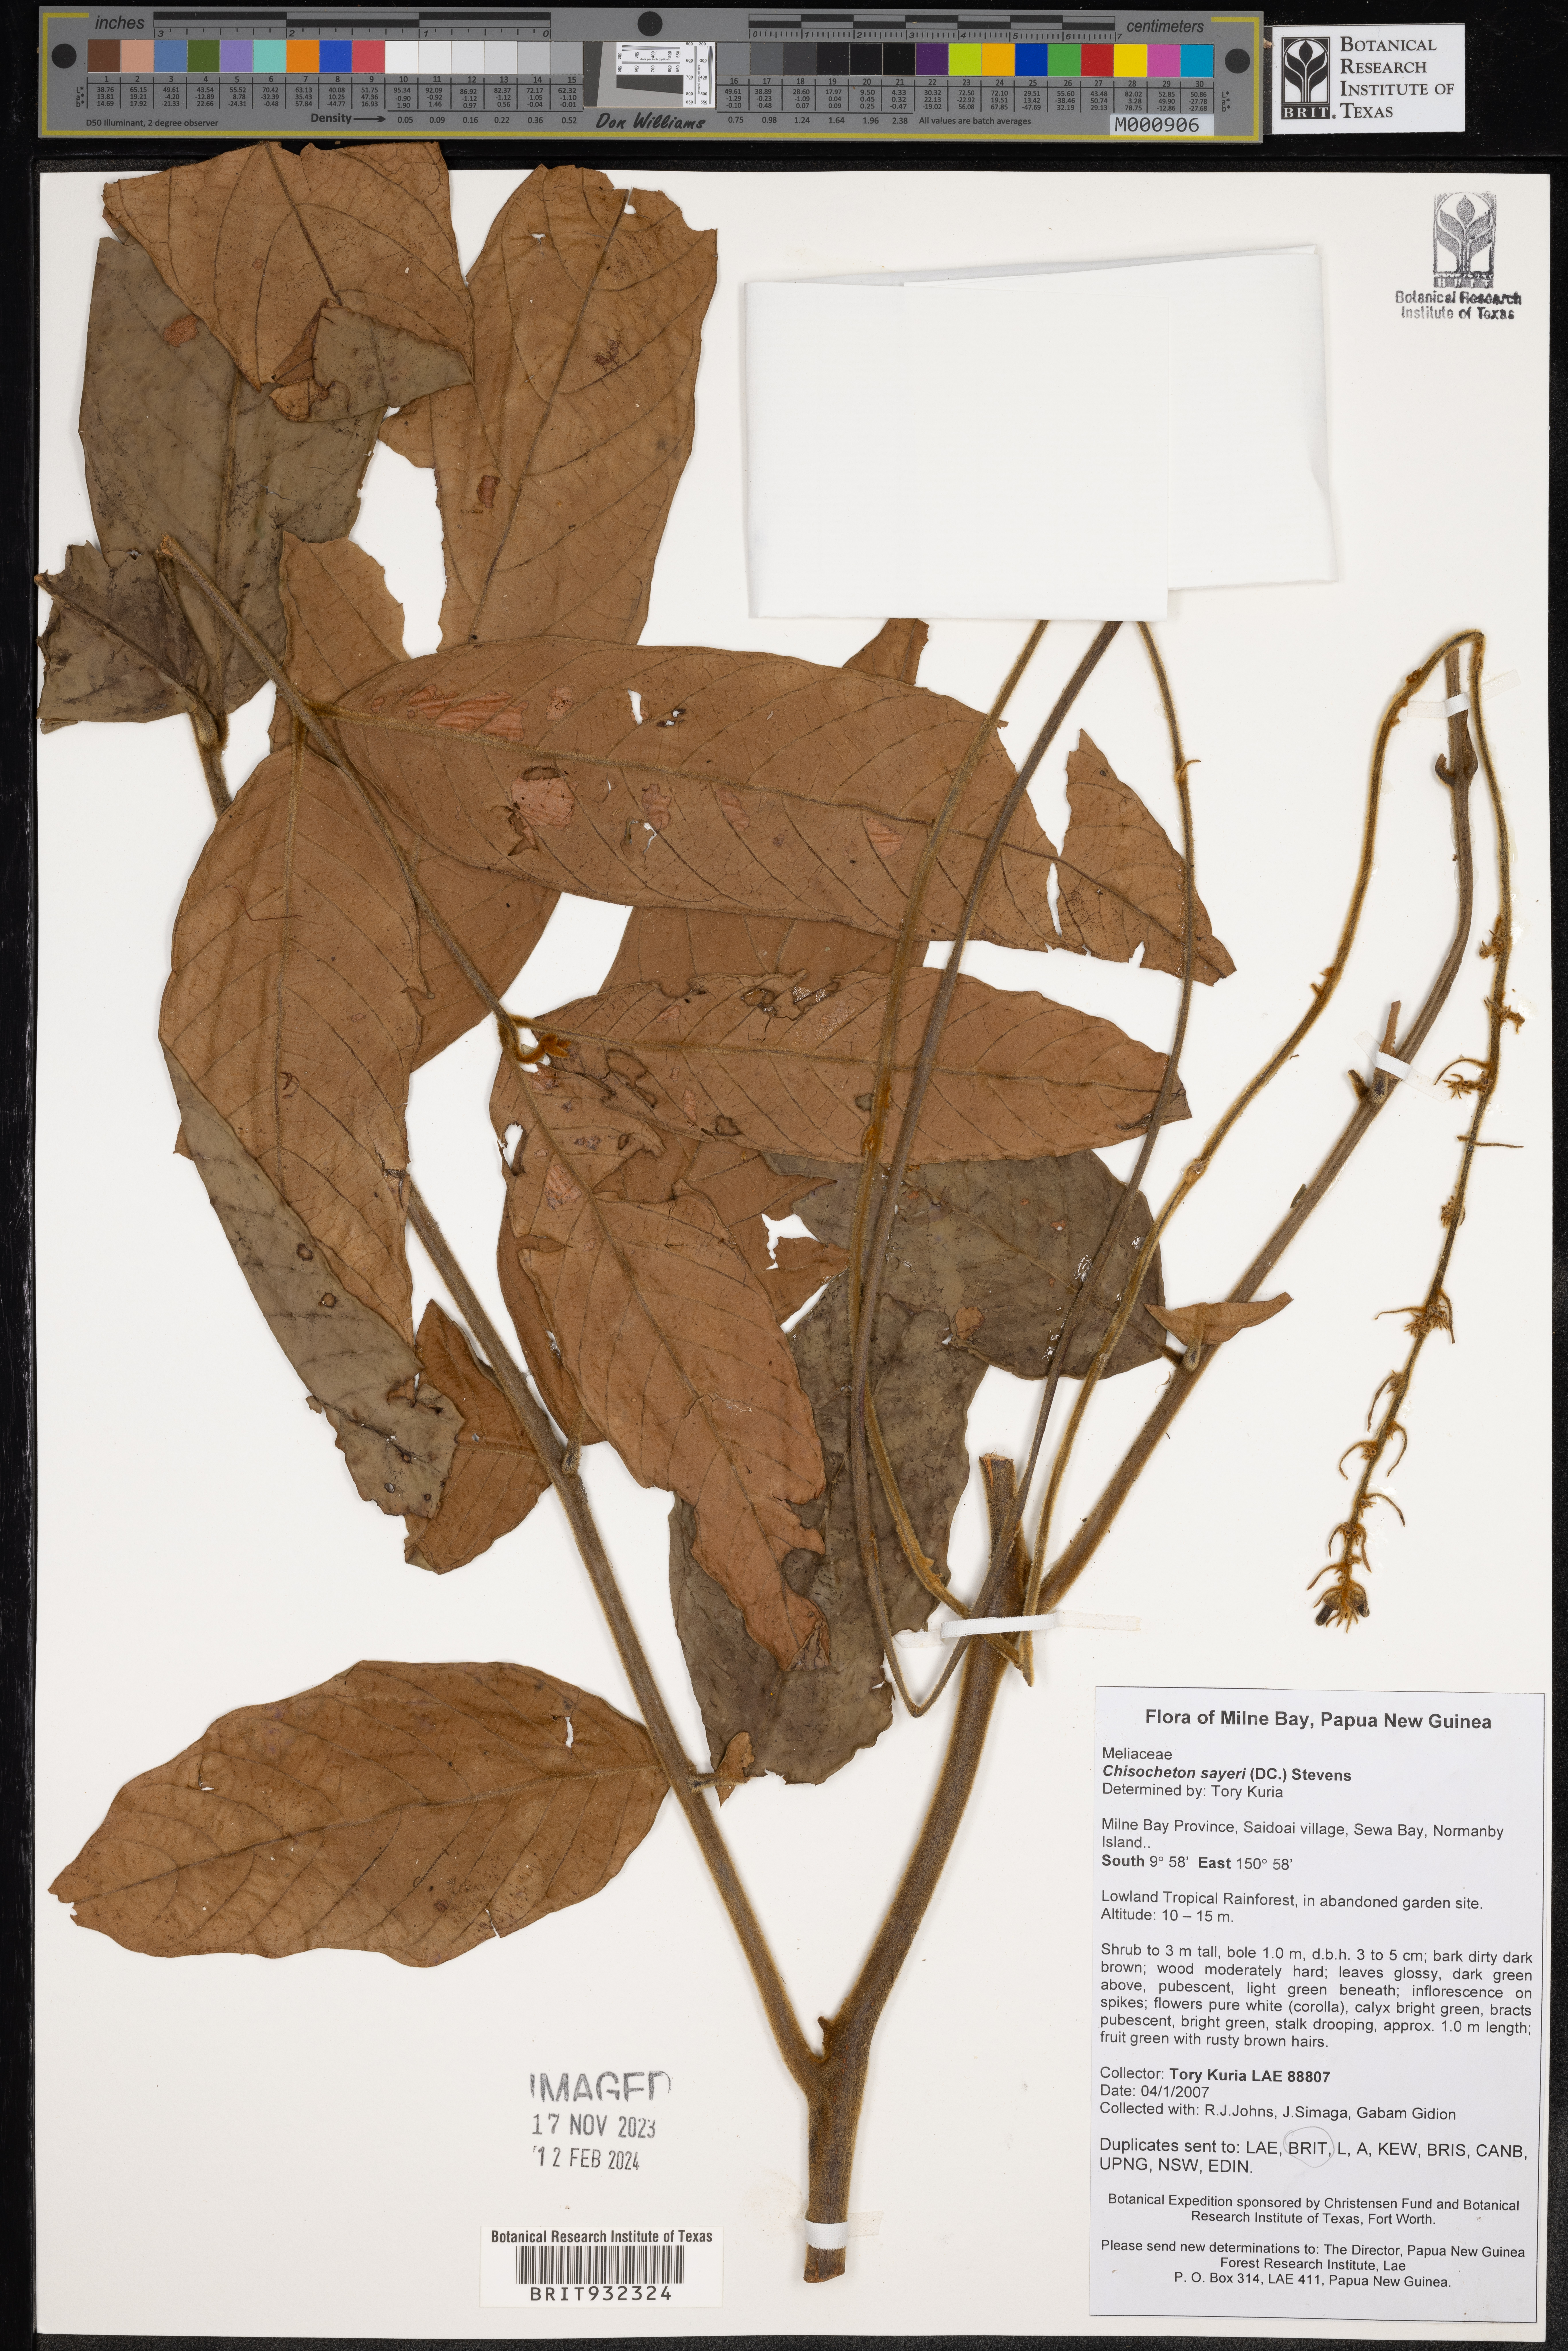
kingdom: Plantae
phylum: Tracheophyta
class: Magnoliopsida
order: Sapindales
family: Meliaceae
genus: Chisocheton
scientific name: Chisocheton
